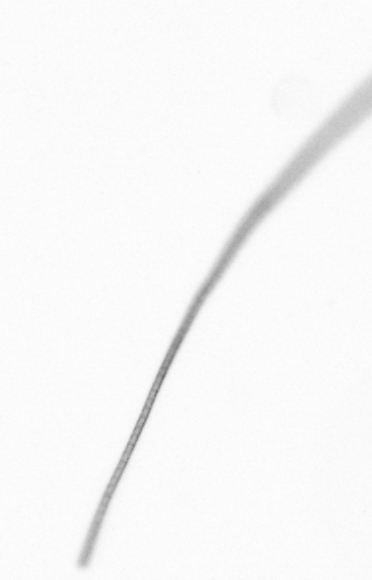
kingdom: Chromista
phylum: Ochrophyta
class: Bacillariophyceae
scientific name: Bacillariophyceae
